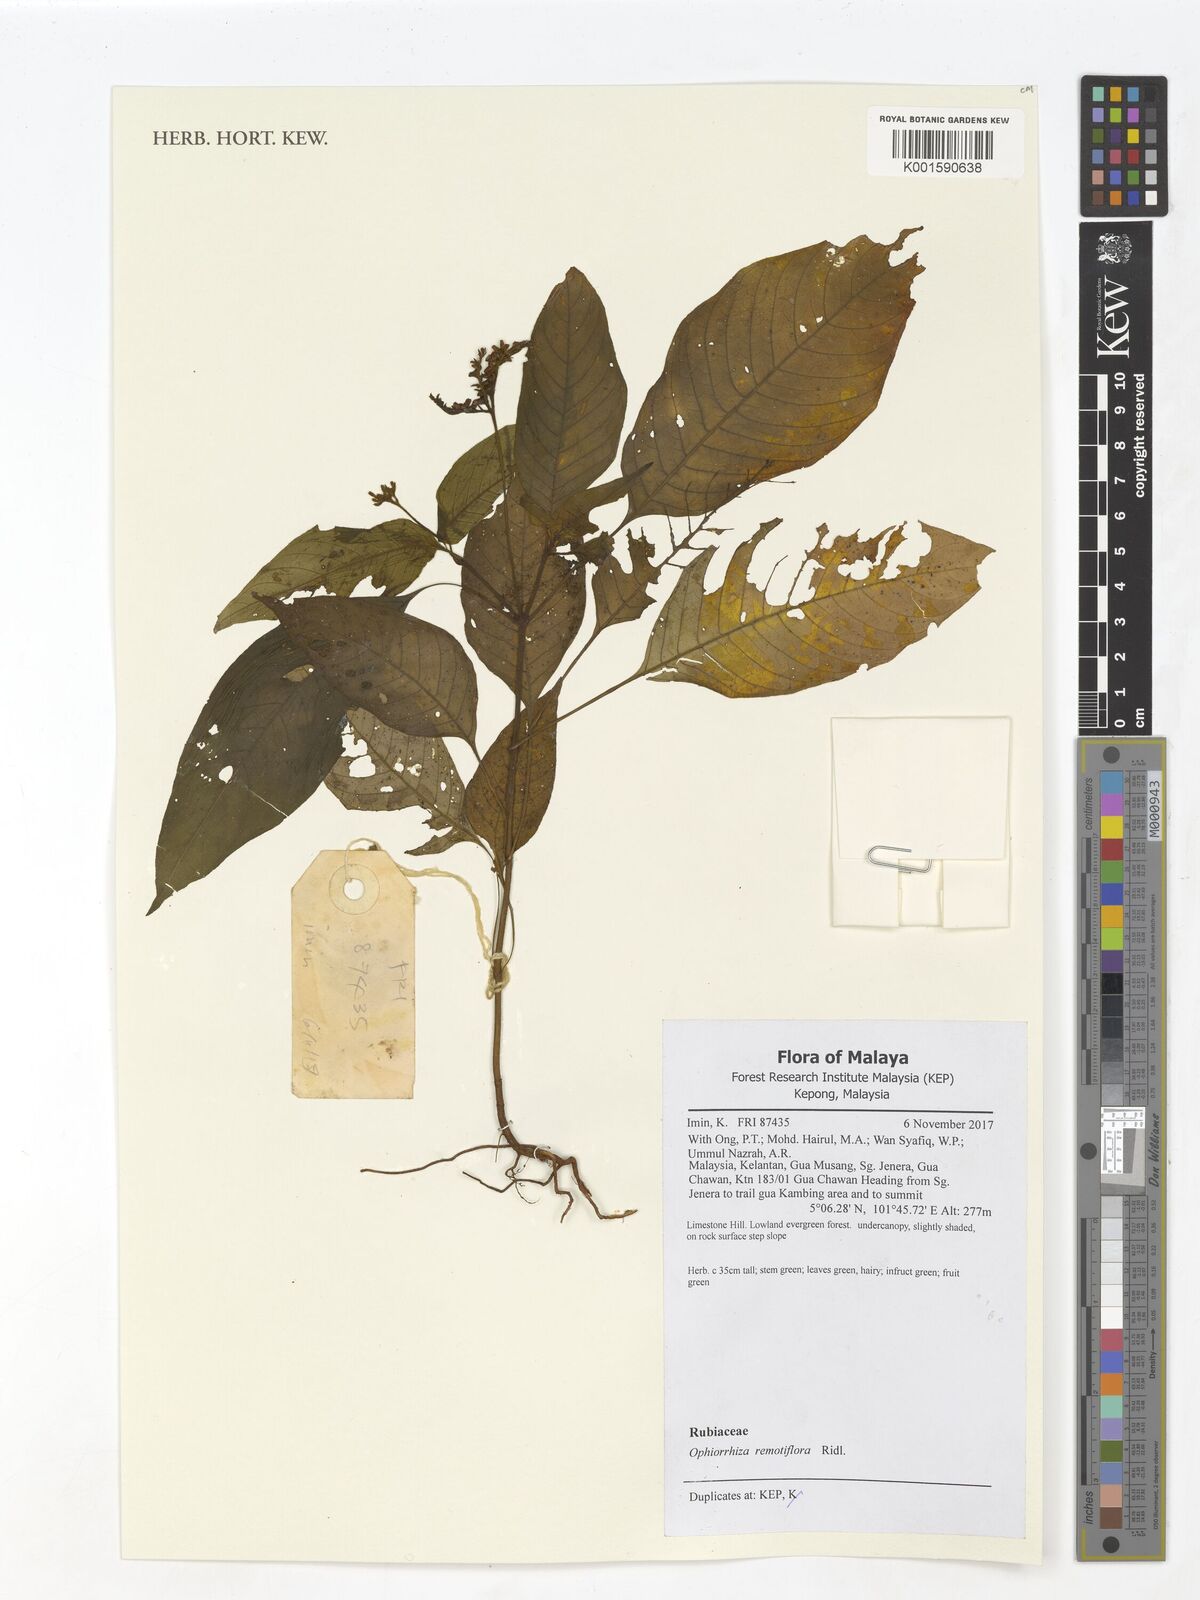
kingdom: Plantae
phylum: Tracheophyta
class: Magnoliopsida
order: Gentianales
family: Rubiaceae
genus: Ophiorrhiza
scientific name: Ophiorrhiza rosea
